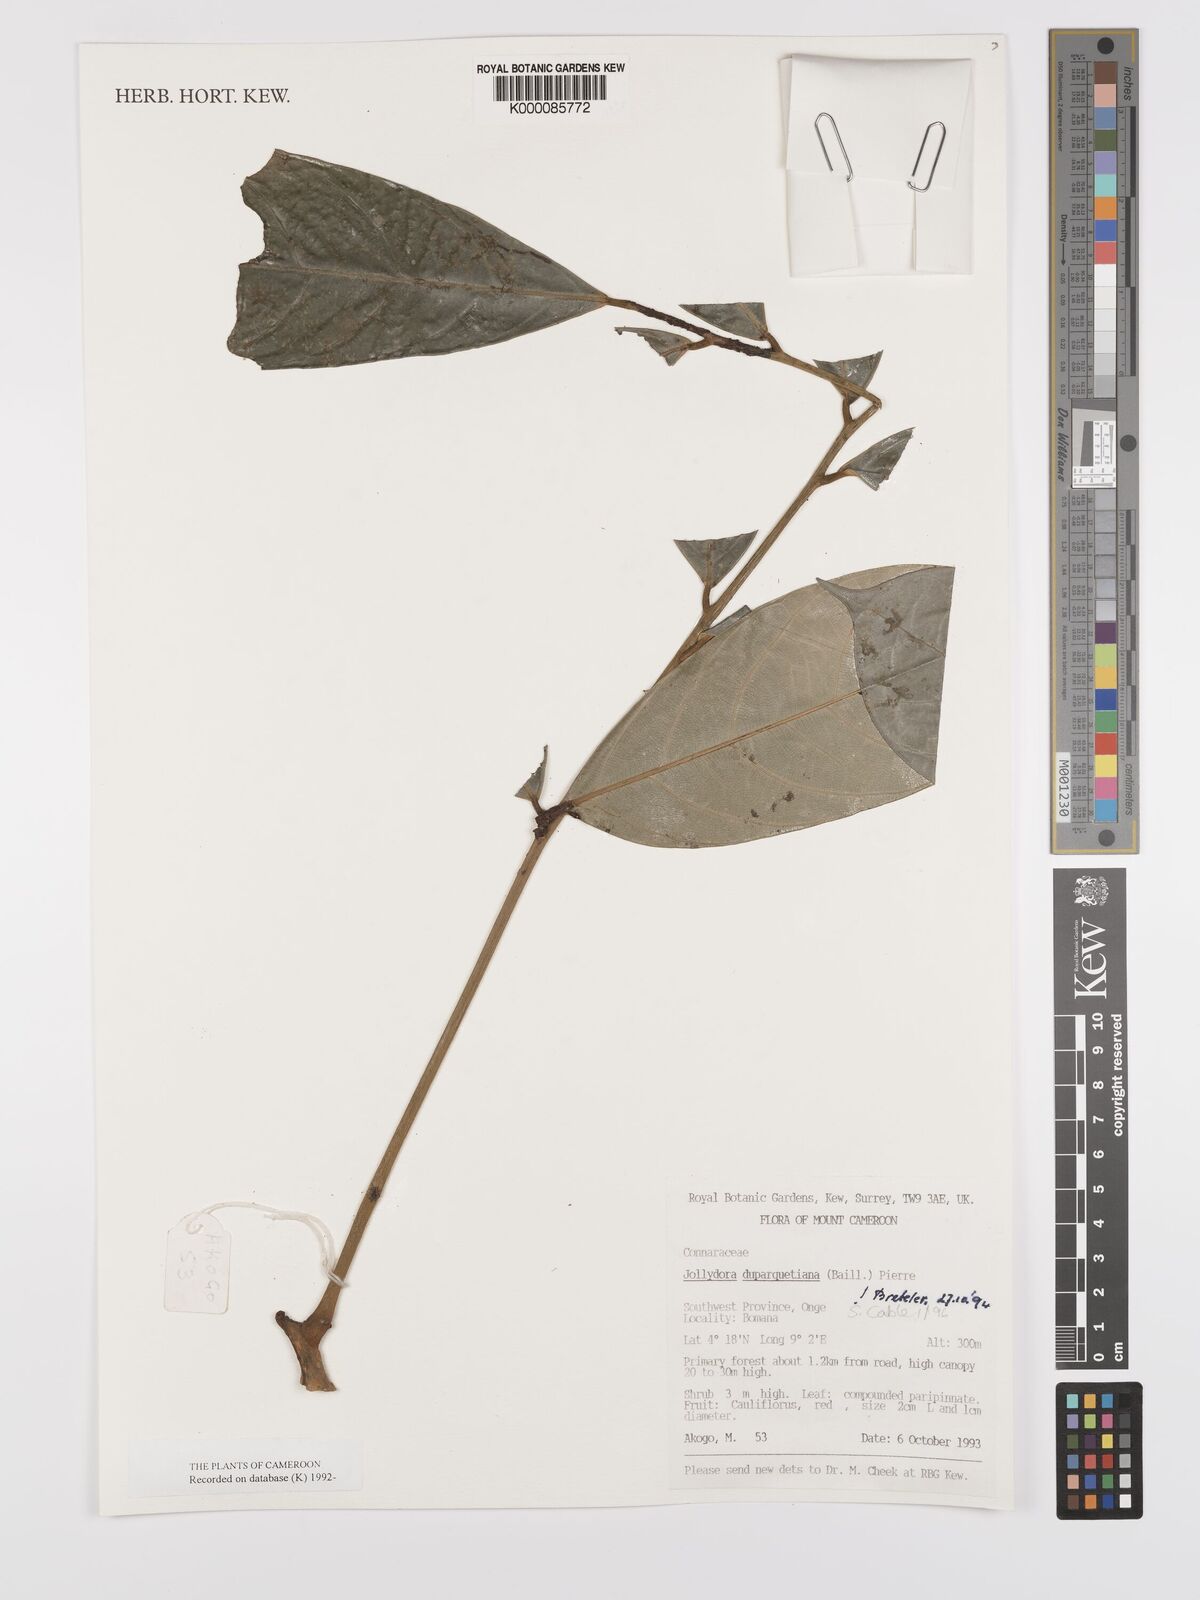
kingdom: Plantae
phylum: Tracheophyta
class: Magnoliopsida
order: Oxalidales
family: Connaraceae
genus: Jollydora
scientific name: Jollydora duparquetiana
